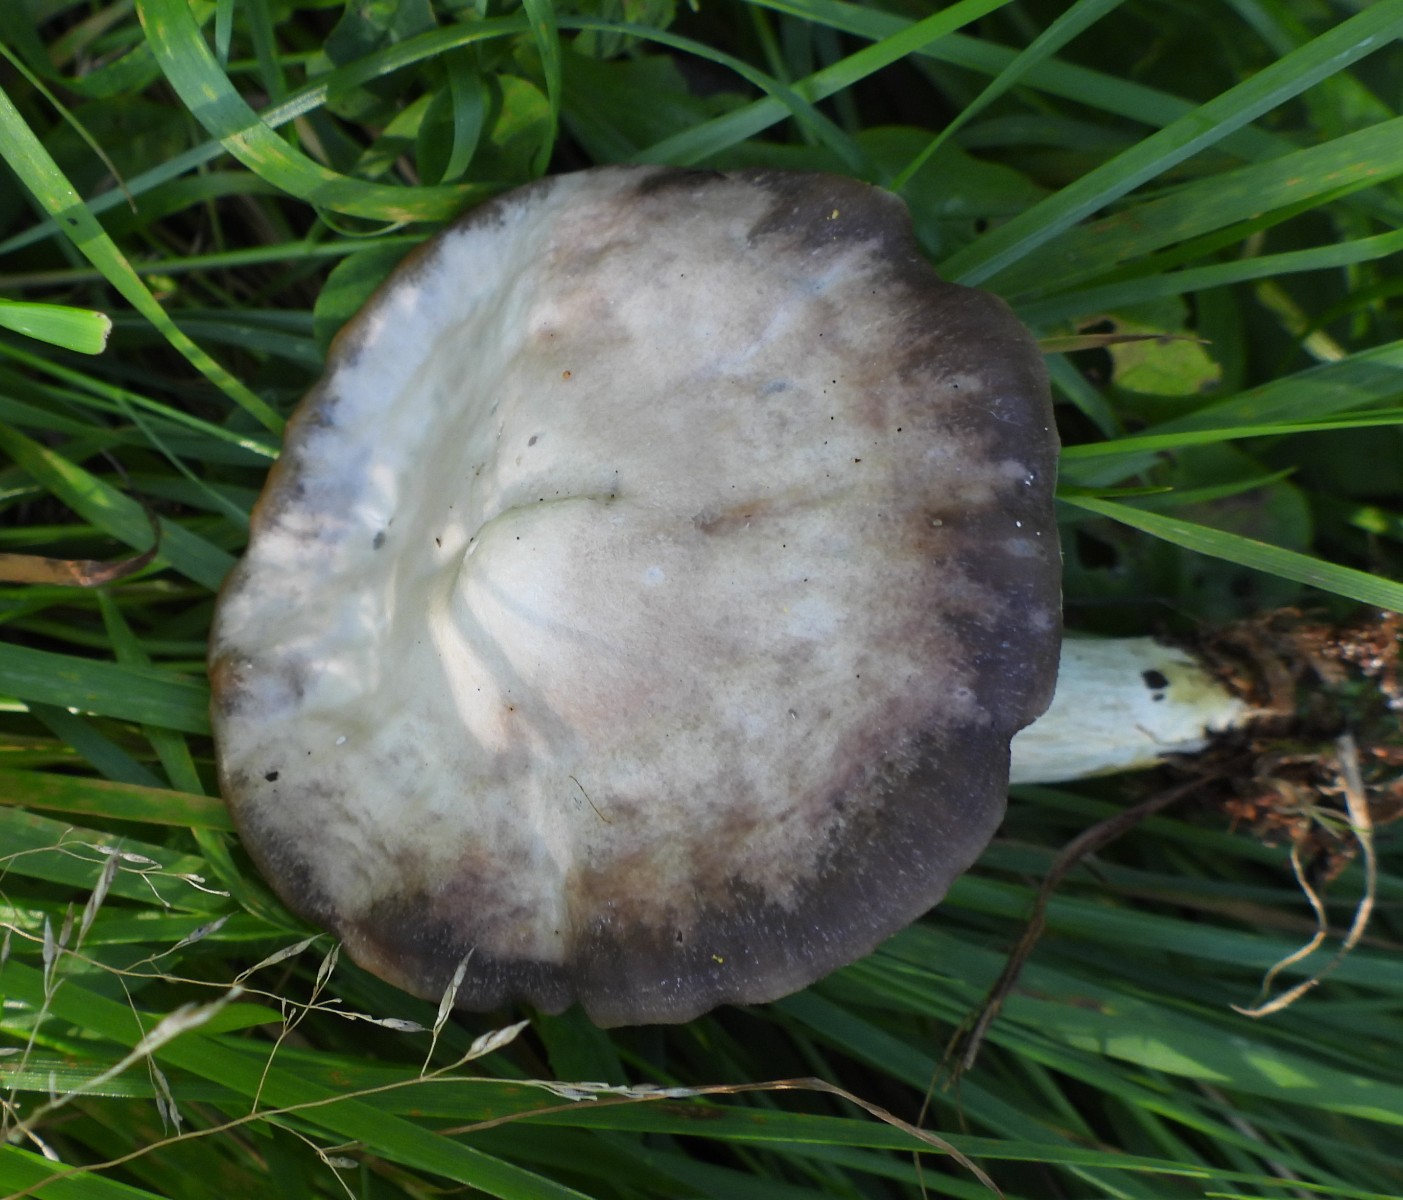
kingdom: Fungi
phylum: Basidiomycota
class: Agaricomycetes
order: Agaricales
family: Hygrophoraceae
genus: Cuphophyllus
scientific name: Cuphophyllus flavipes
